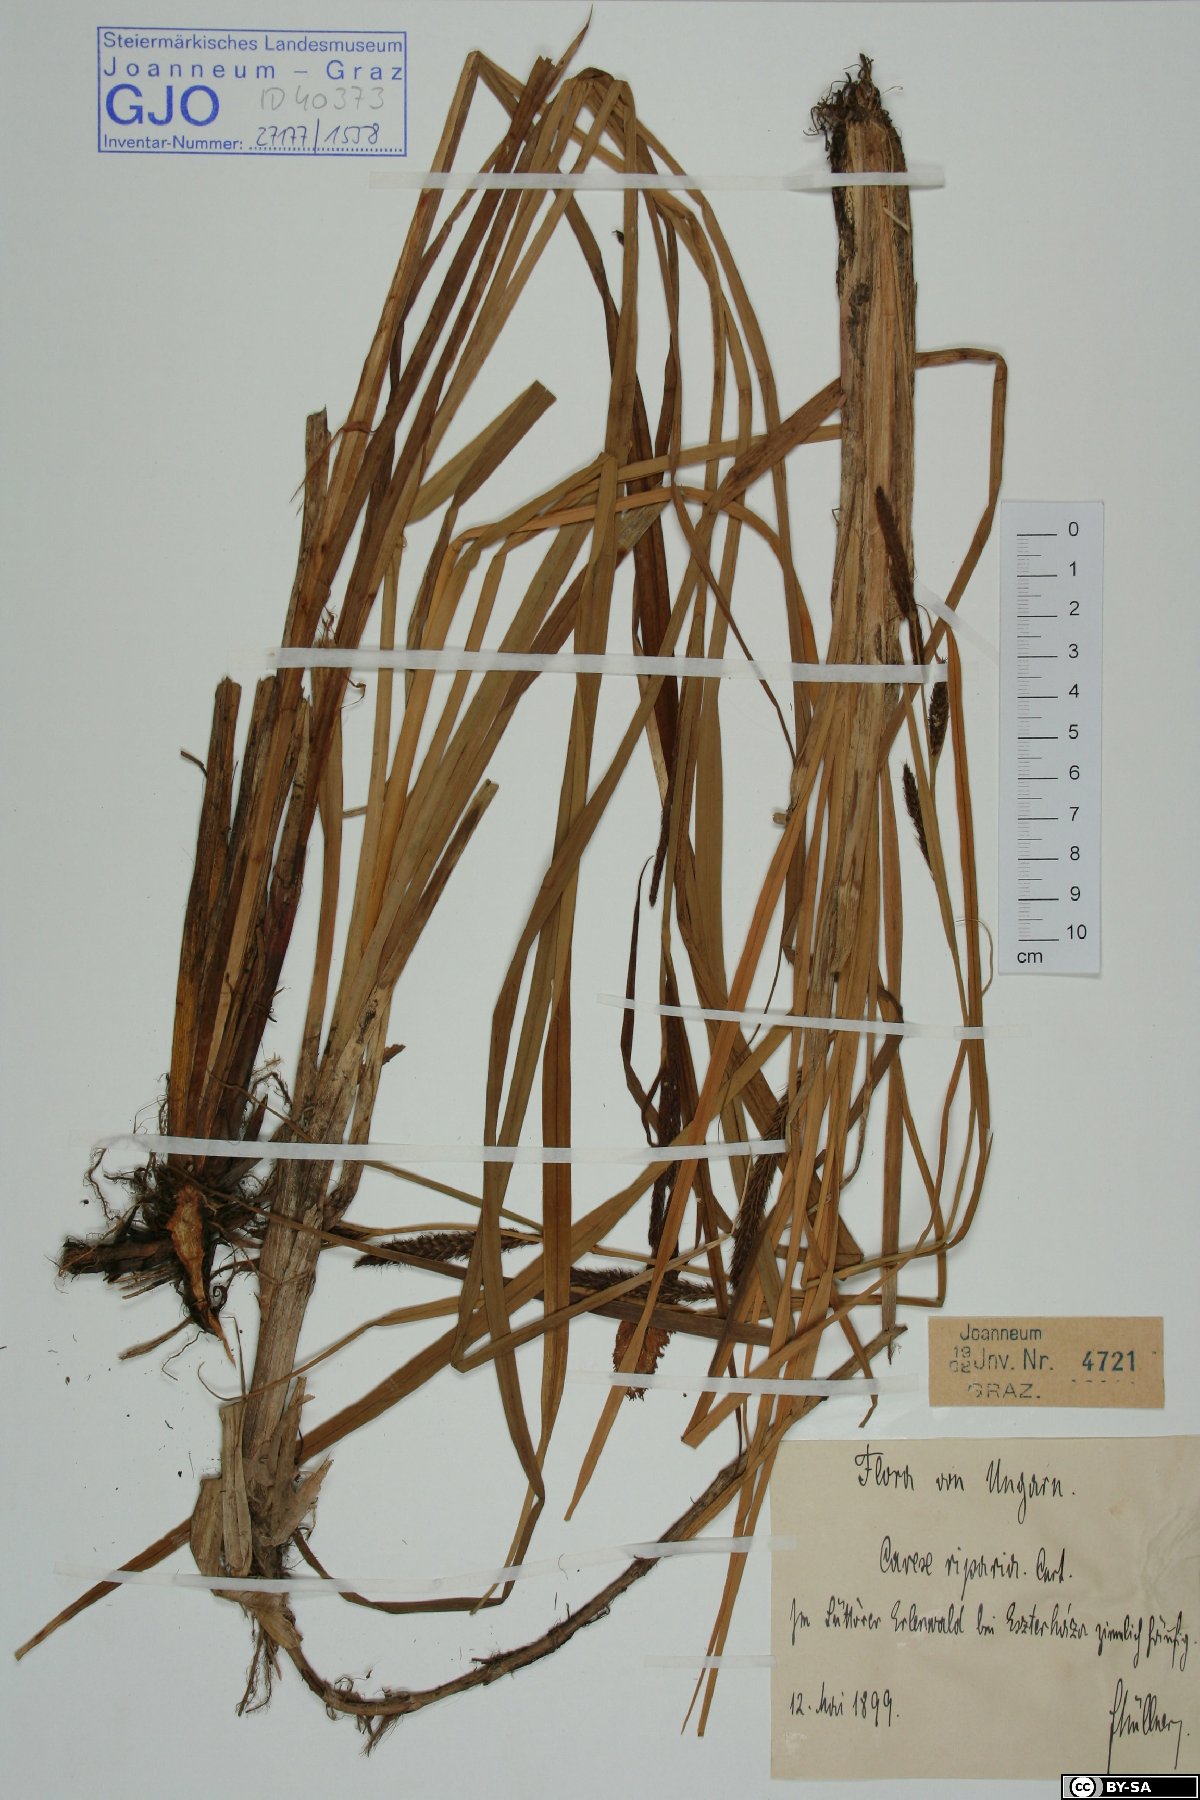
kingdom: Plantae
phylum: Tracheophyta
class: Liliopsida
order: Poales
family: Cyperaceae
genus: Carex
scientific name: Carex riparia
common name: Greater pond-sedge
